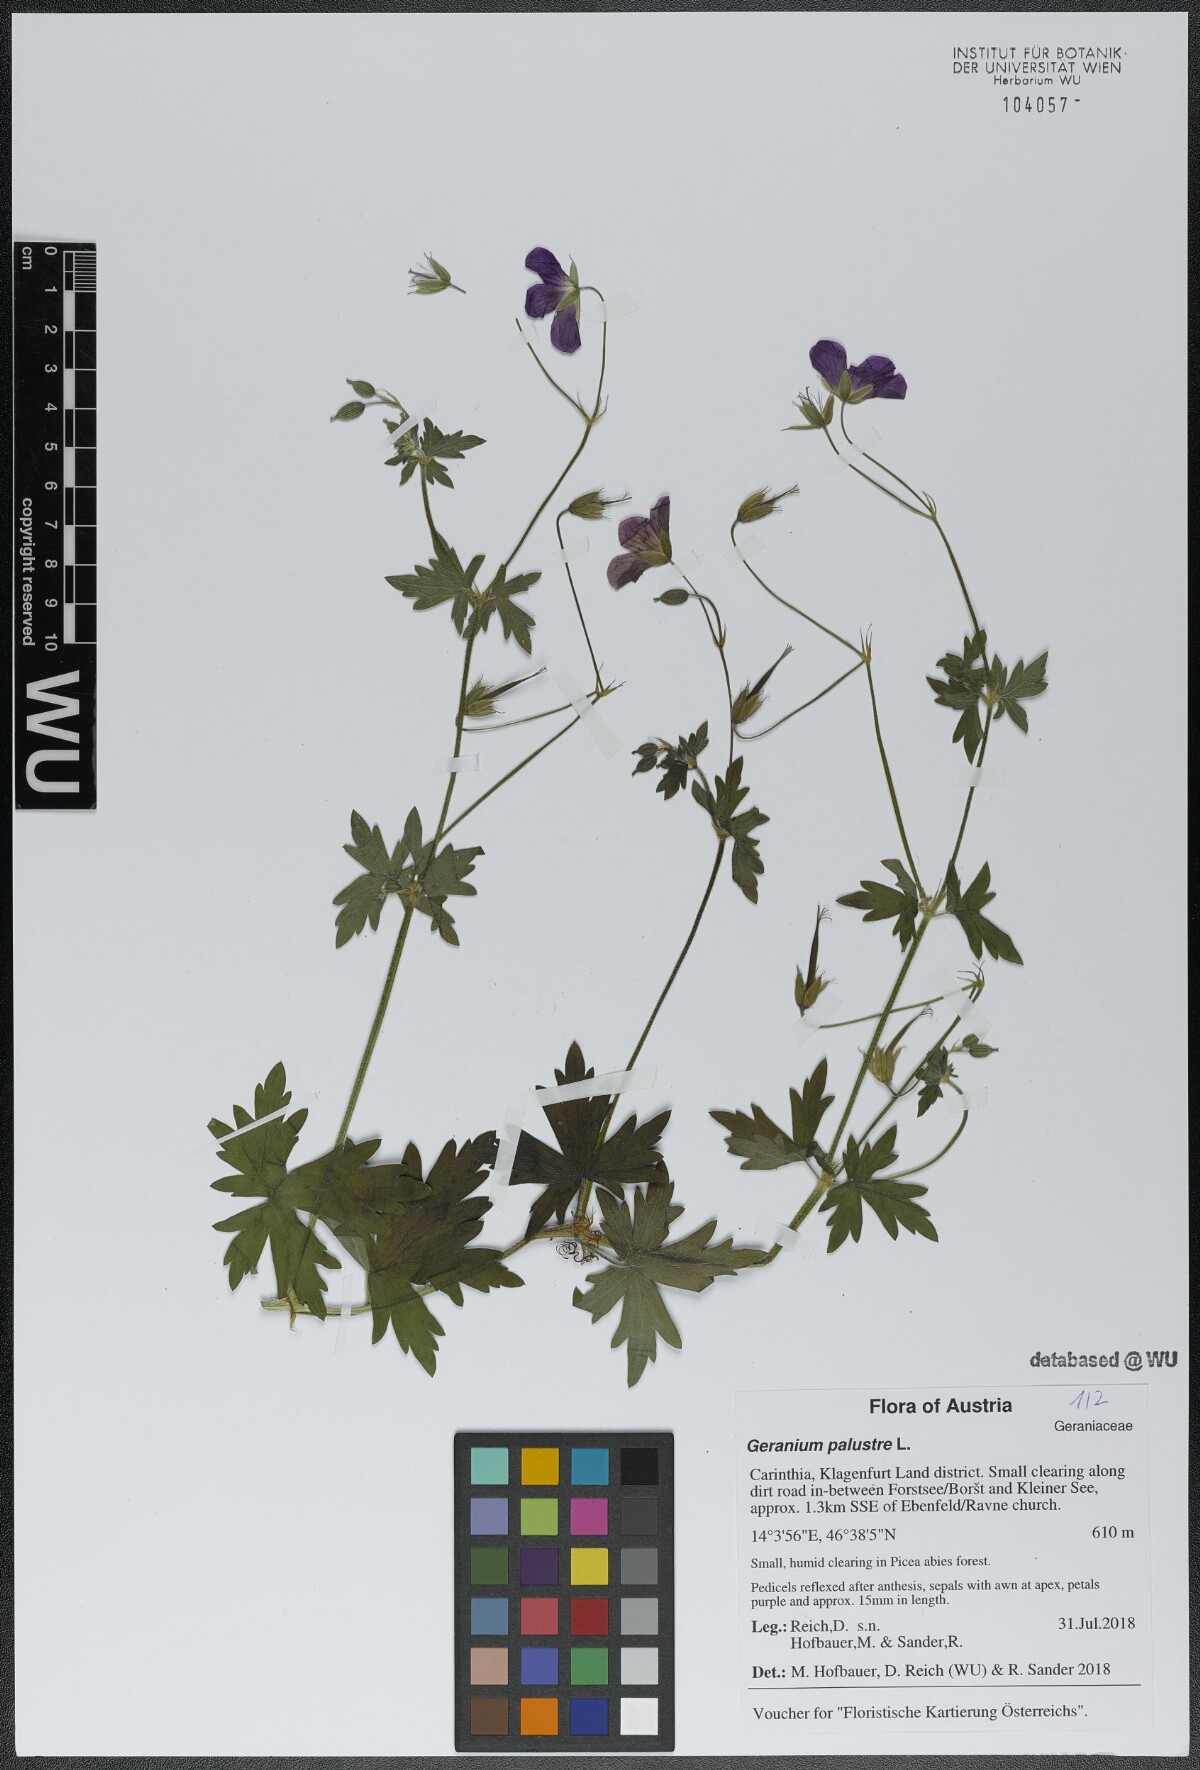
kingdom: Plantae
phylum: Tracheophyta
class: Magnoliopsida
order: Geraniales
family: Geraniaceae
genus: Geranium
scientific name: Geranium palustre
